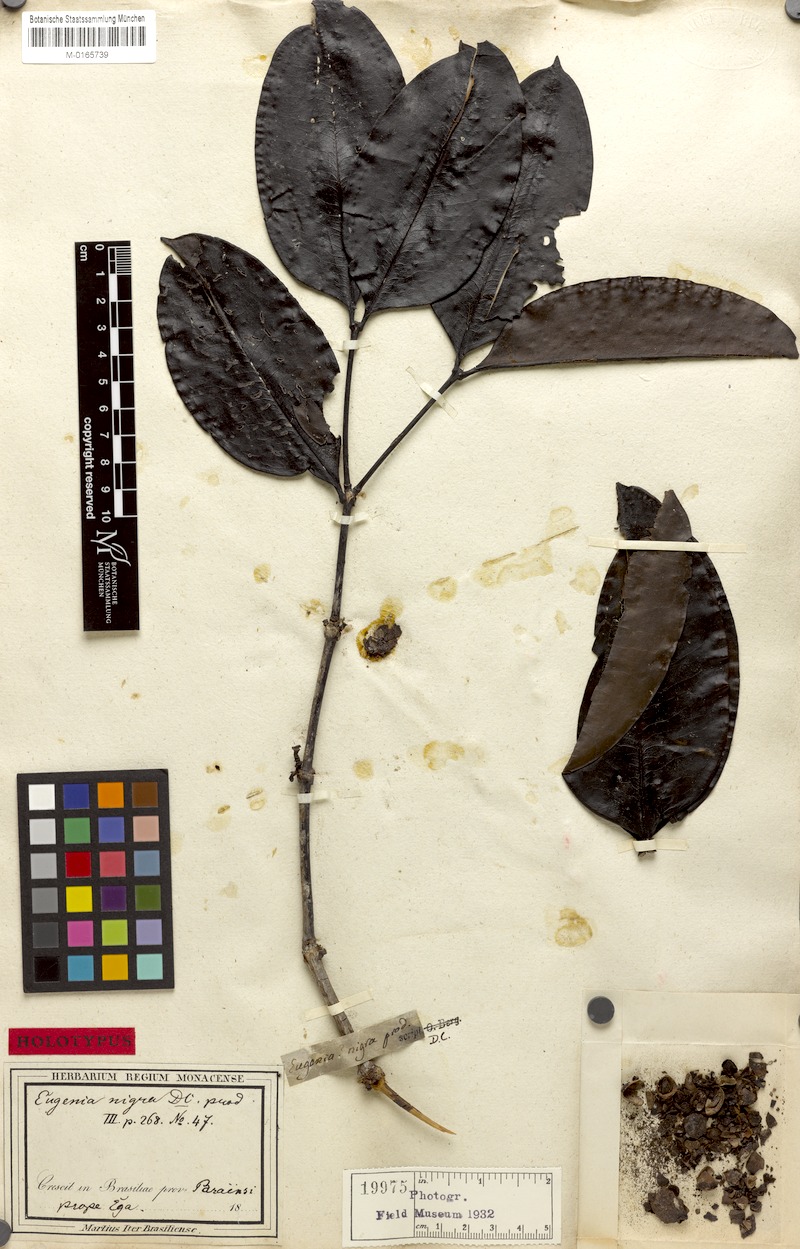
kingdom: Plantae
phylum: Tracheophyta
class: Magnoliopsida
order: Myrtales
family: Melastomataceae
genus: Mouriri
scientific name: Mouriri nigra
